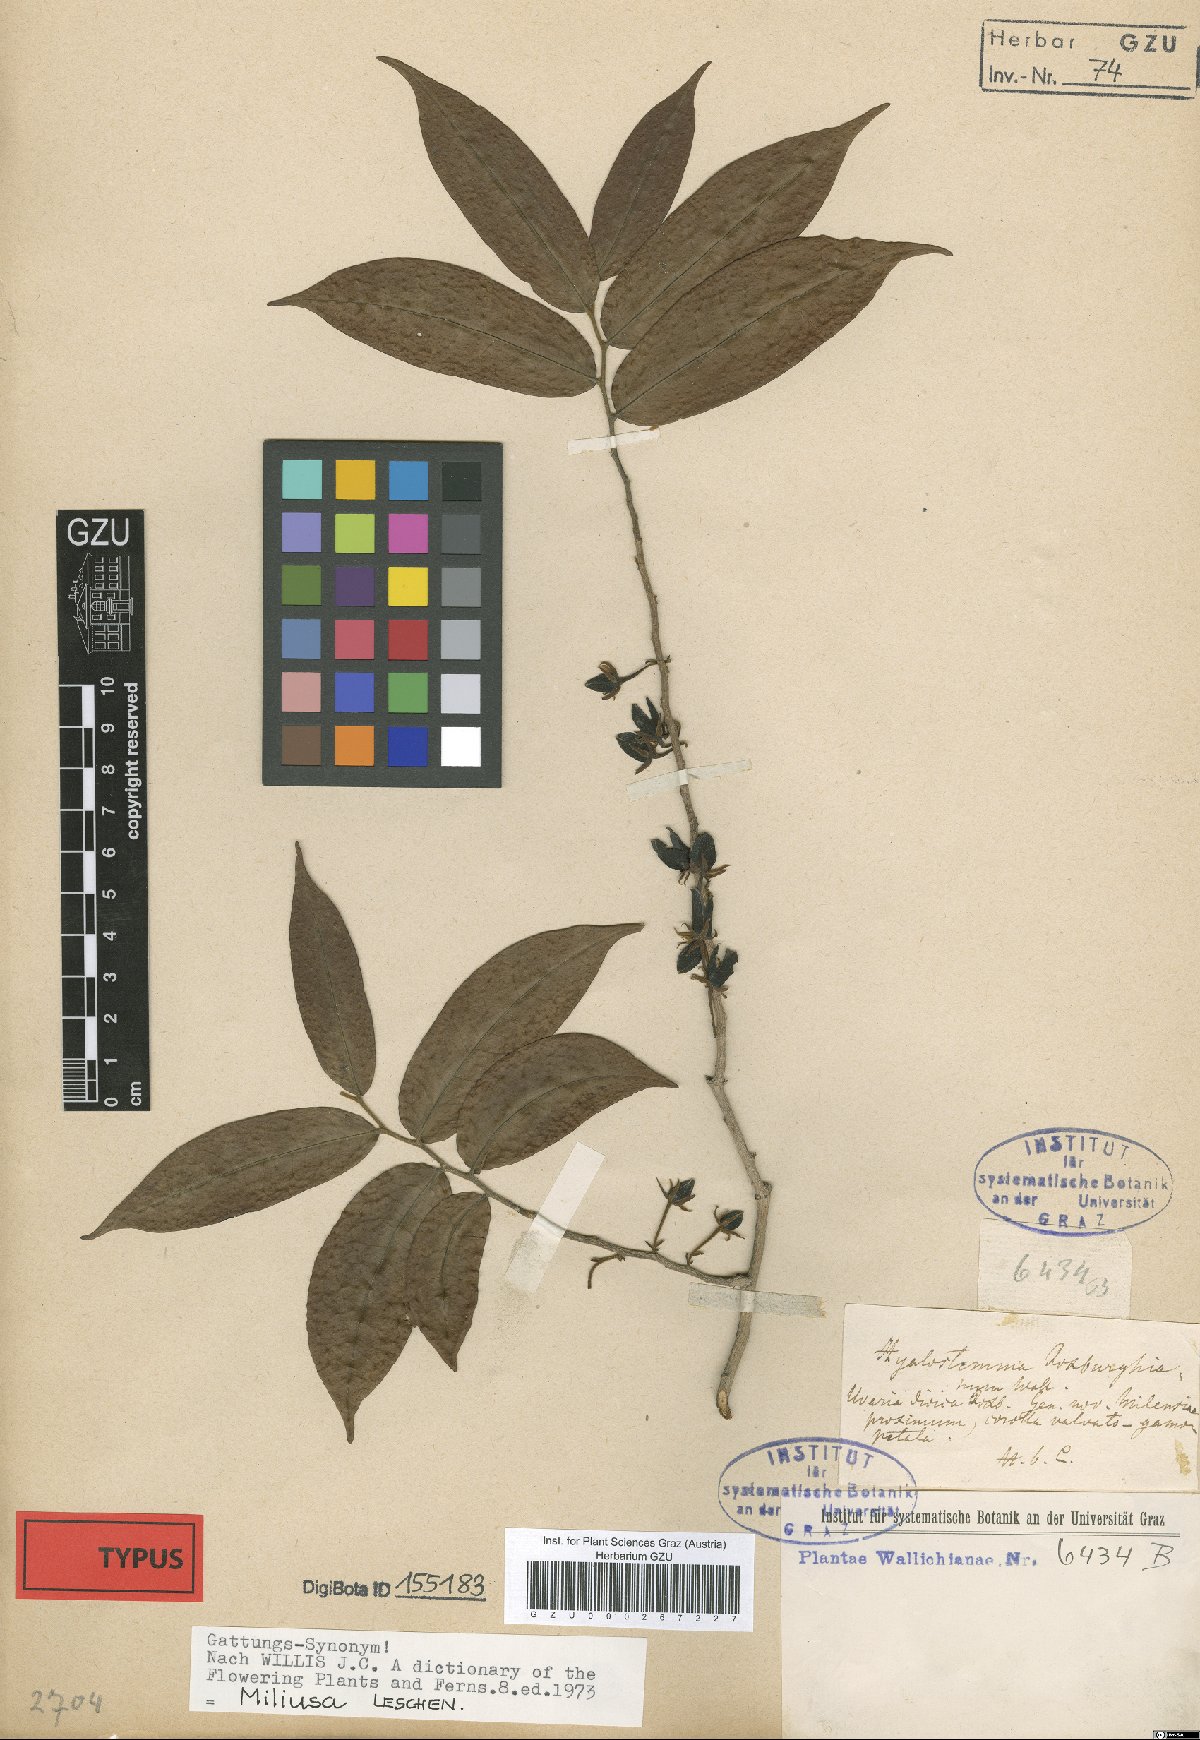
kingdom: Plantae
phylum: Tracheophyta
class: Magnoliopsida
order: Magnoliales
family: Annonaceae
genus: Miliusa
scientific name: Miliusa roxburghiana
